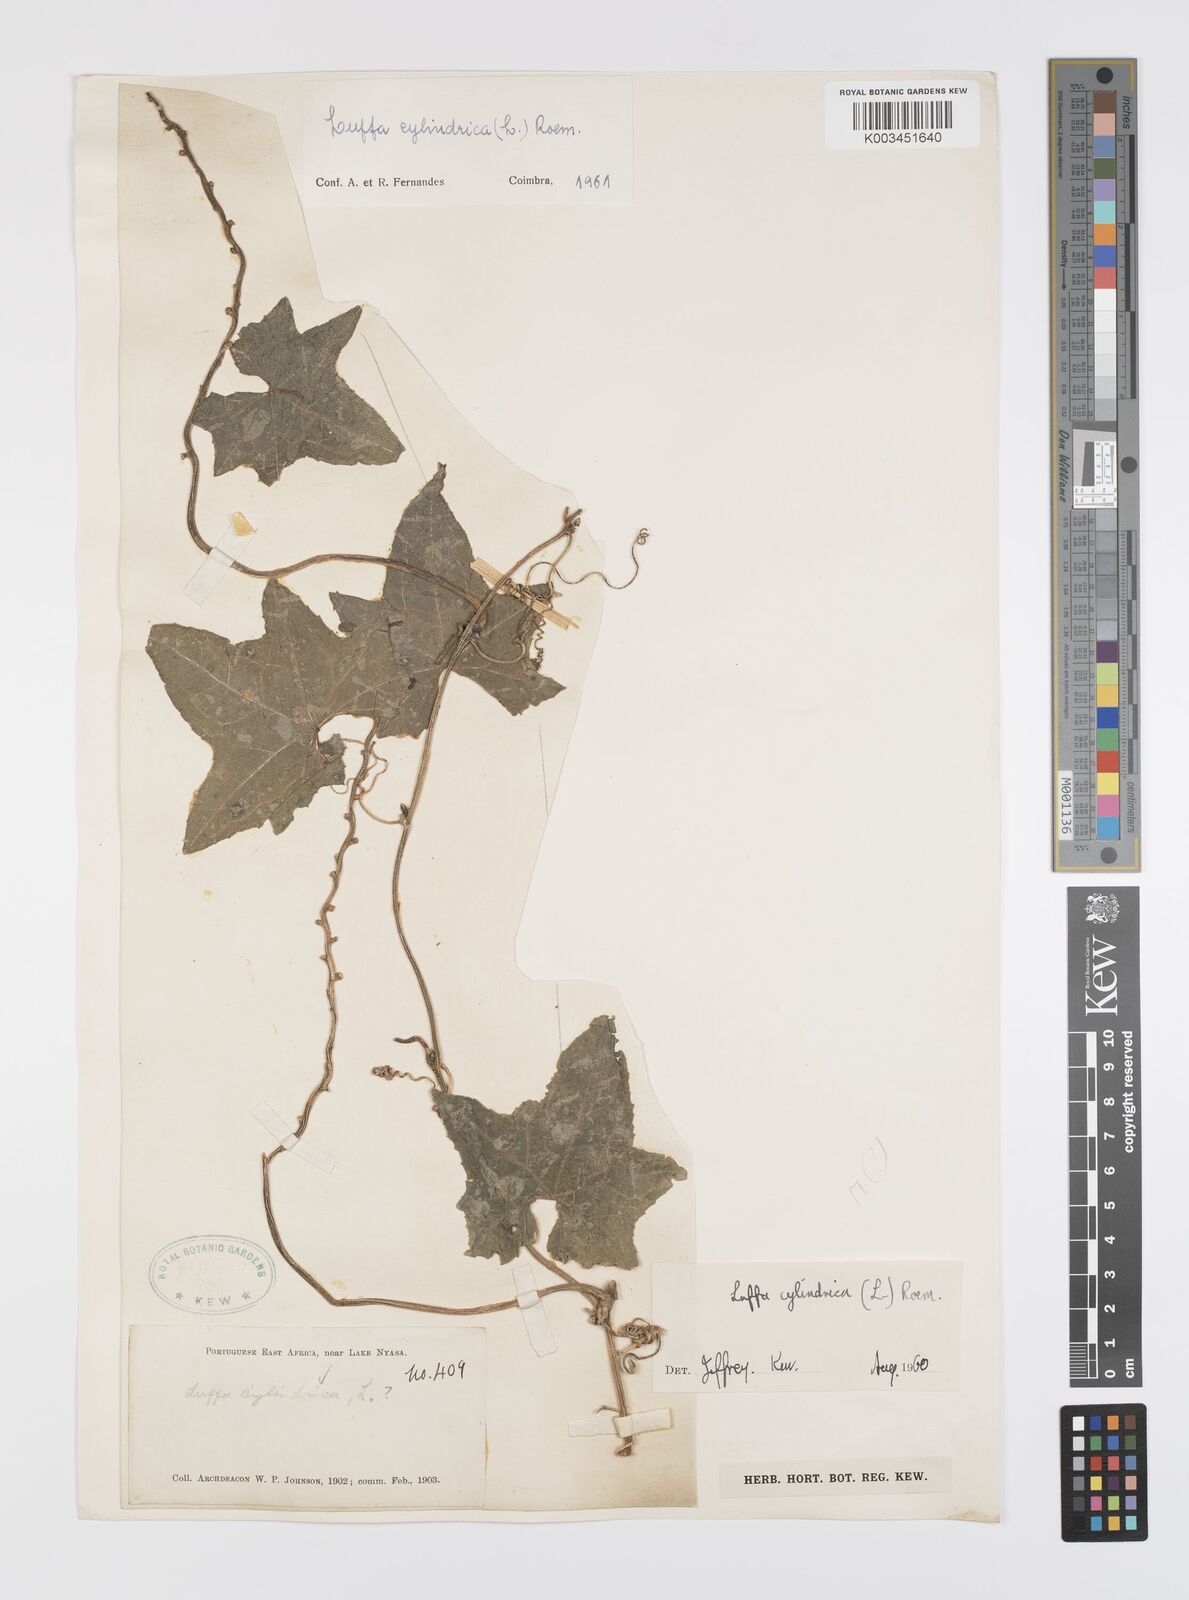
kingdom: Plantae
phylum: Tracheophyta
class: Magnoliopsida
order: Cucurbitales
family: Cucurbitaceae
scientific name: Cucurbitaceae
